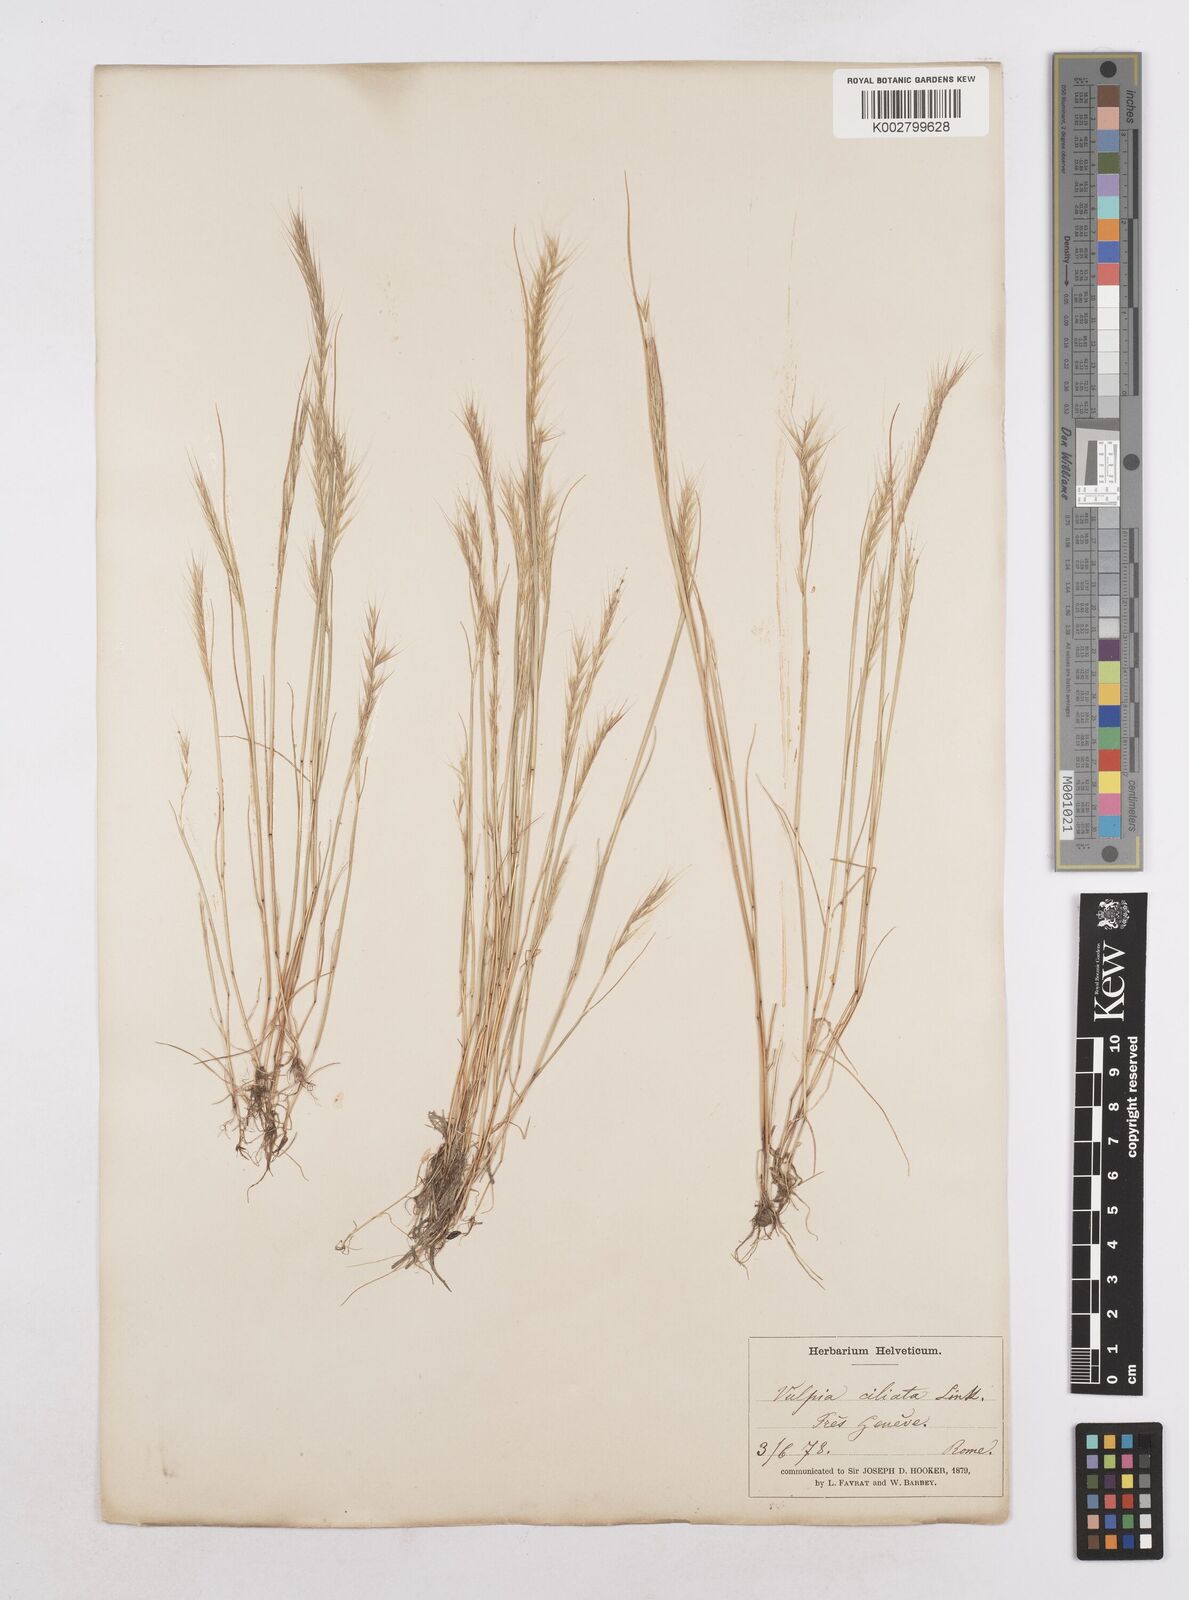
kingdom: Plantae
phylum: Tracheophyta
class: Liliopsida
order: Poales
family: Poaceae
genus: Festuca
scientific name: Festuca
